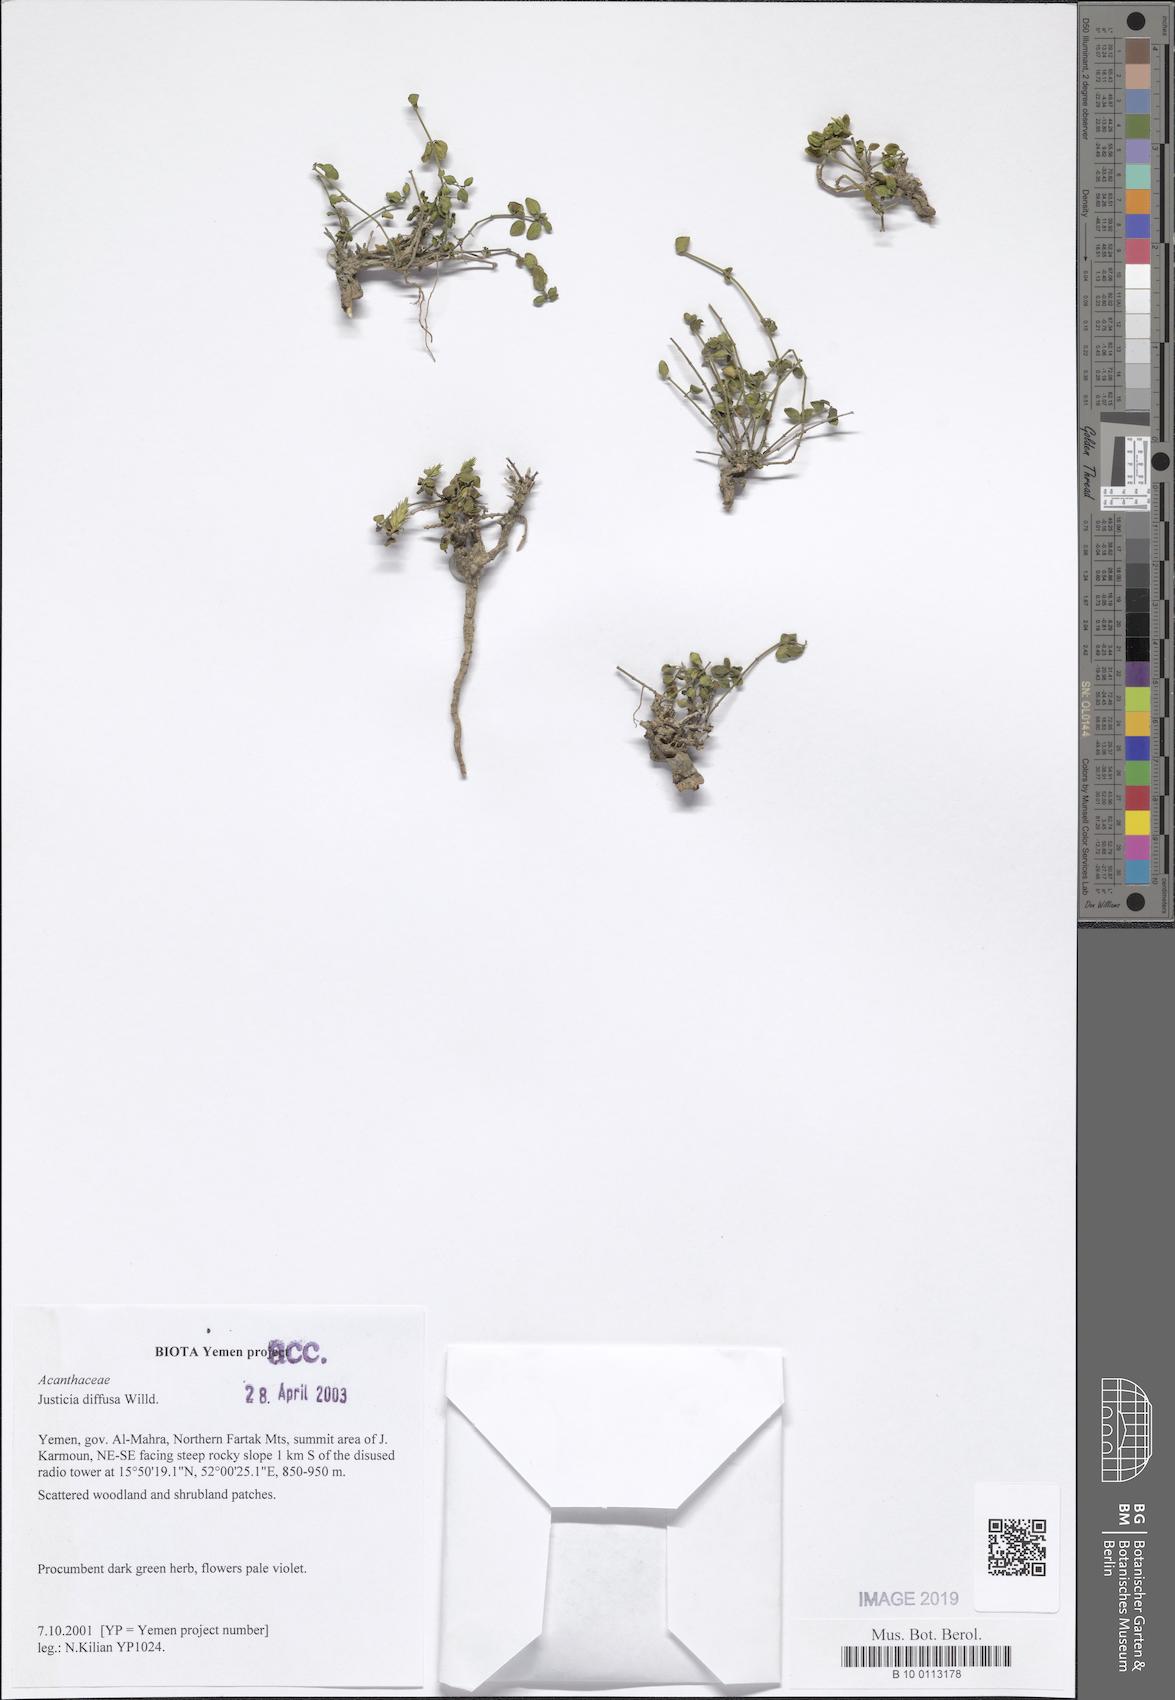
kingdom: Plantae
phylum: Tracheophyta
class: Magnoliopsida
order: Lamiales
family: Acanthaceae
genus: Rostellularia
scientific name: Rostellularia diffusa
